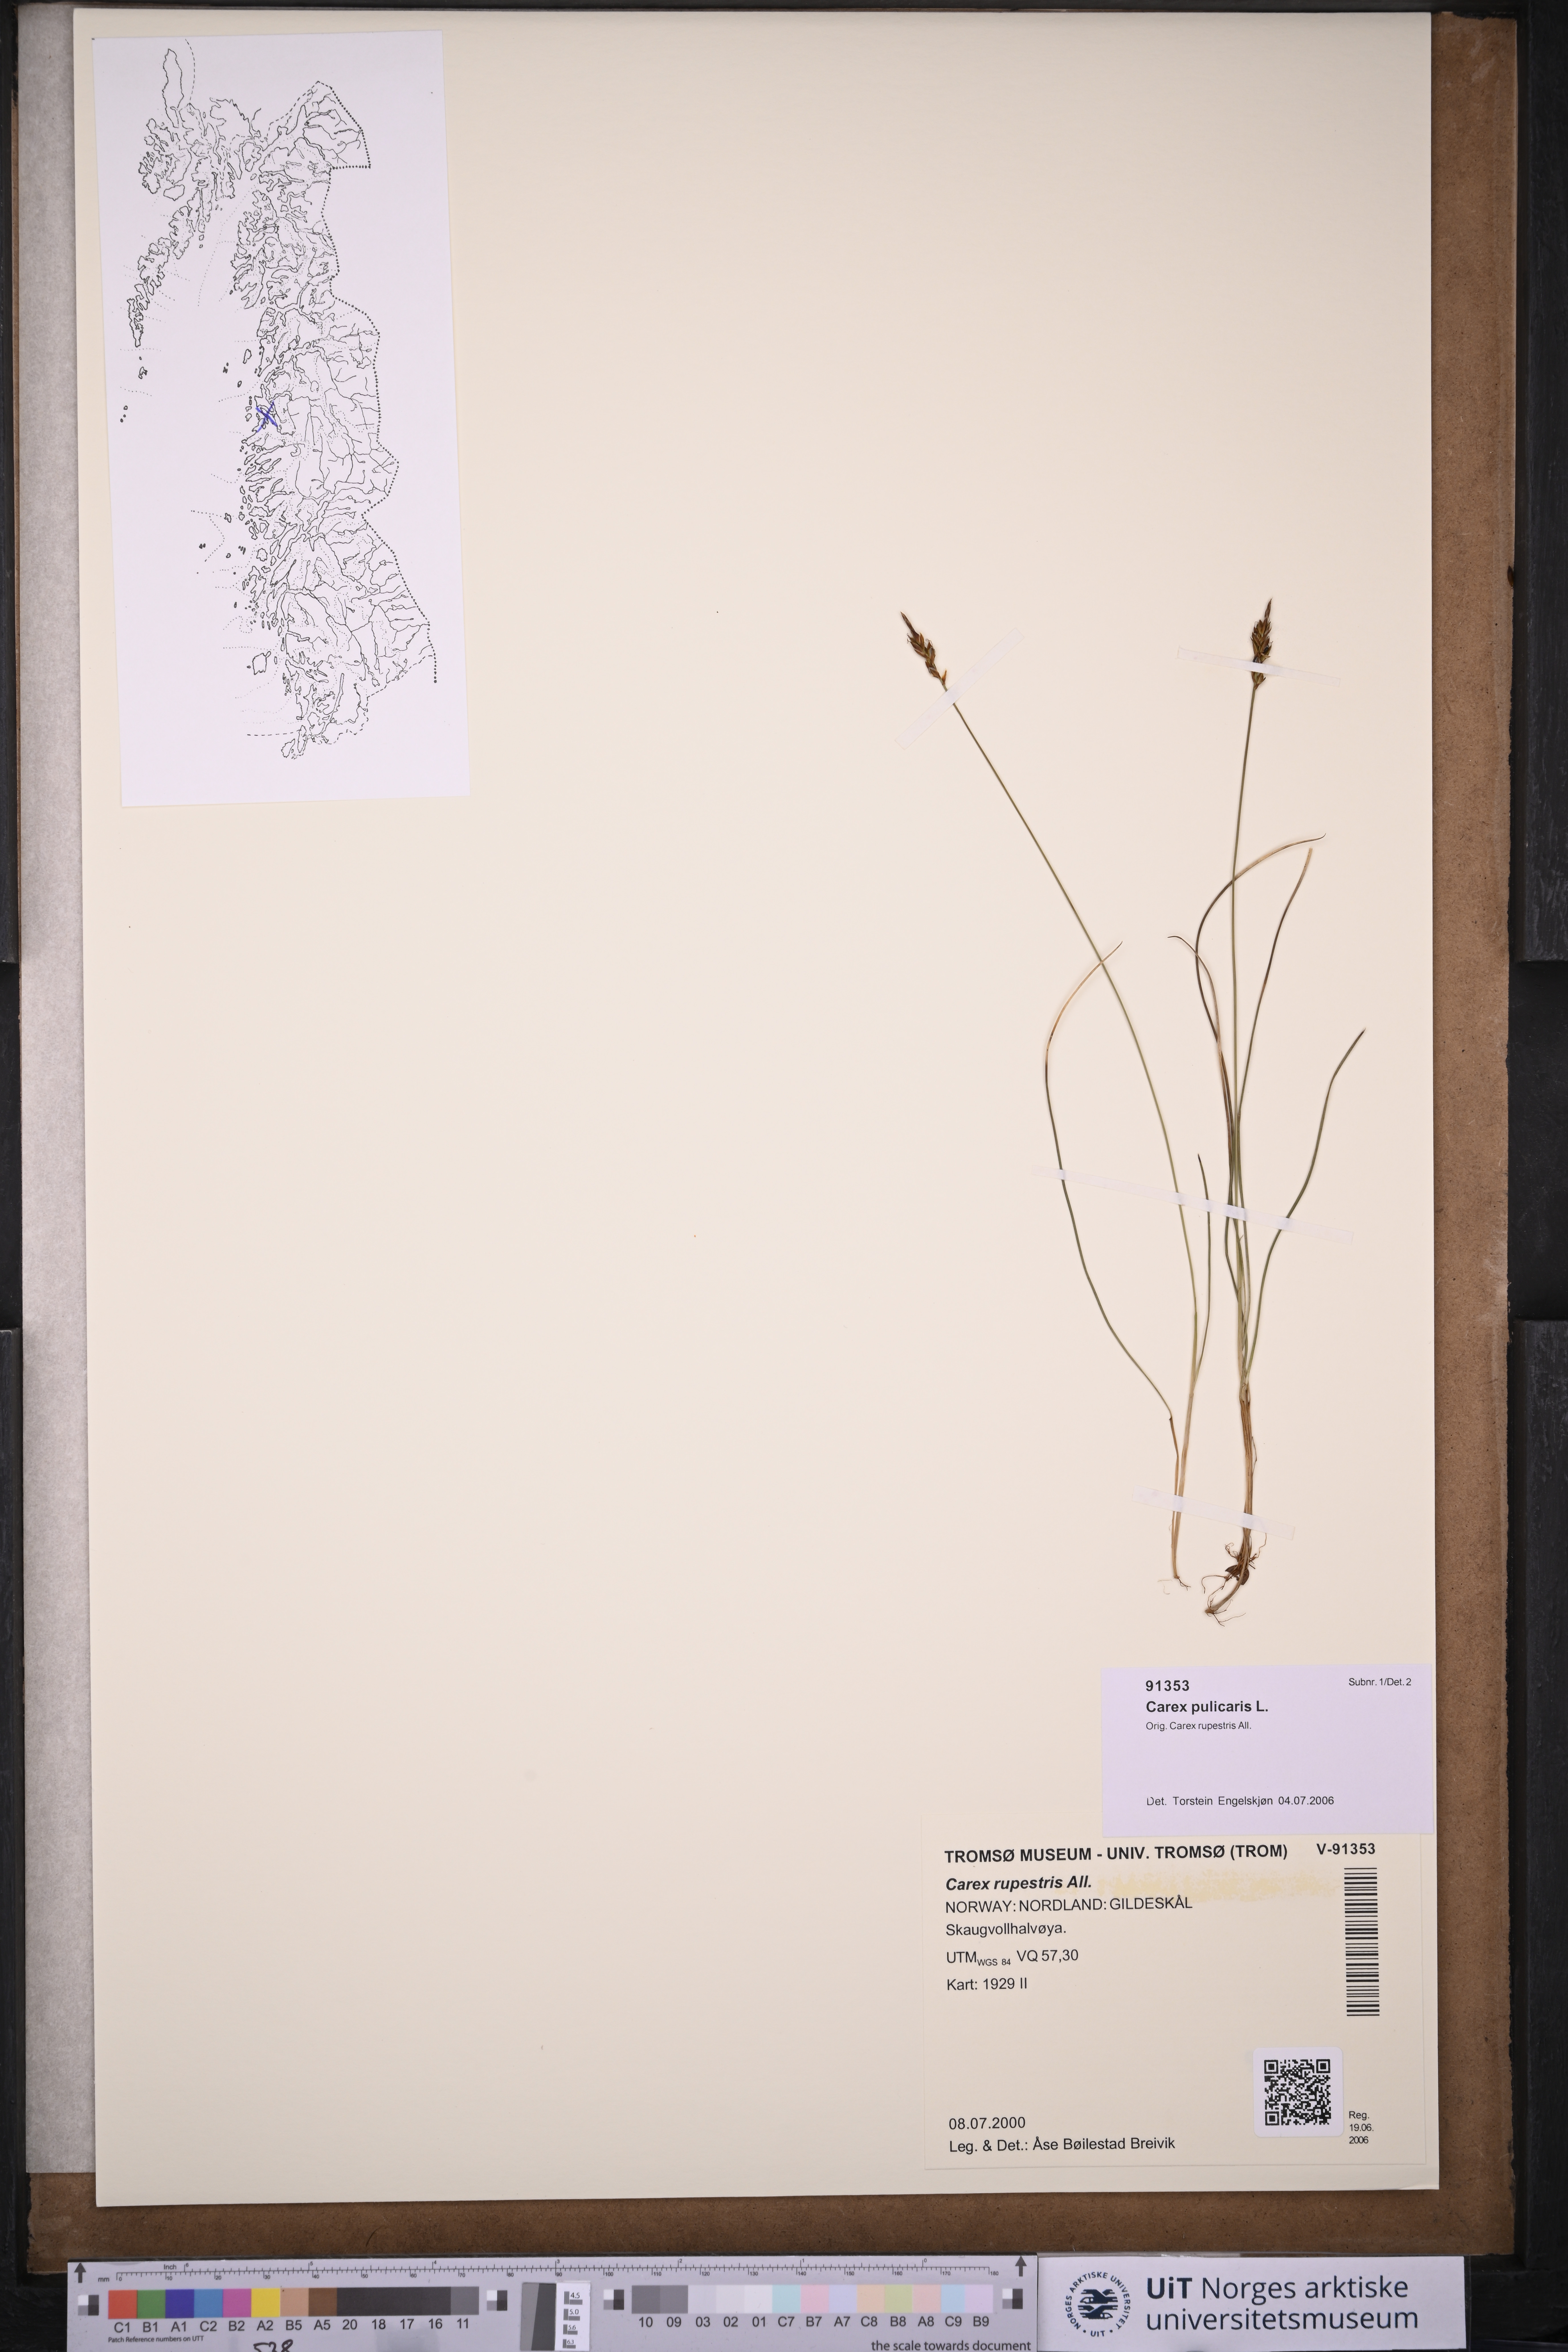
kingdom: Plantae
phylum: Tracheophyta
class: Liliopsida
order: Poales
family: Cyperaceae
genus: Carex
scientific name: Carex pulicaris
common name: Flea sedge
